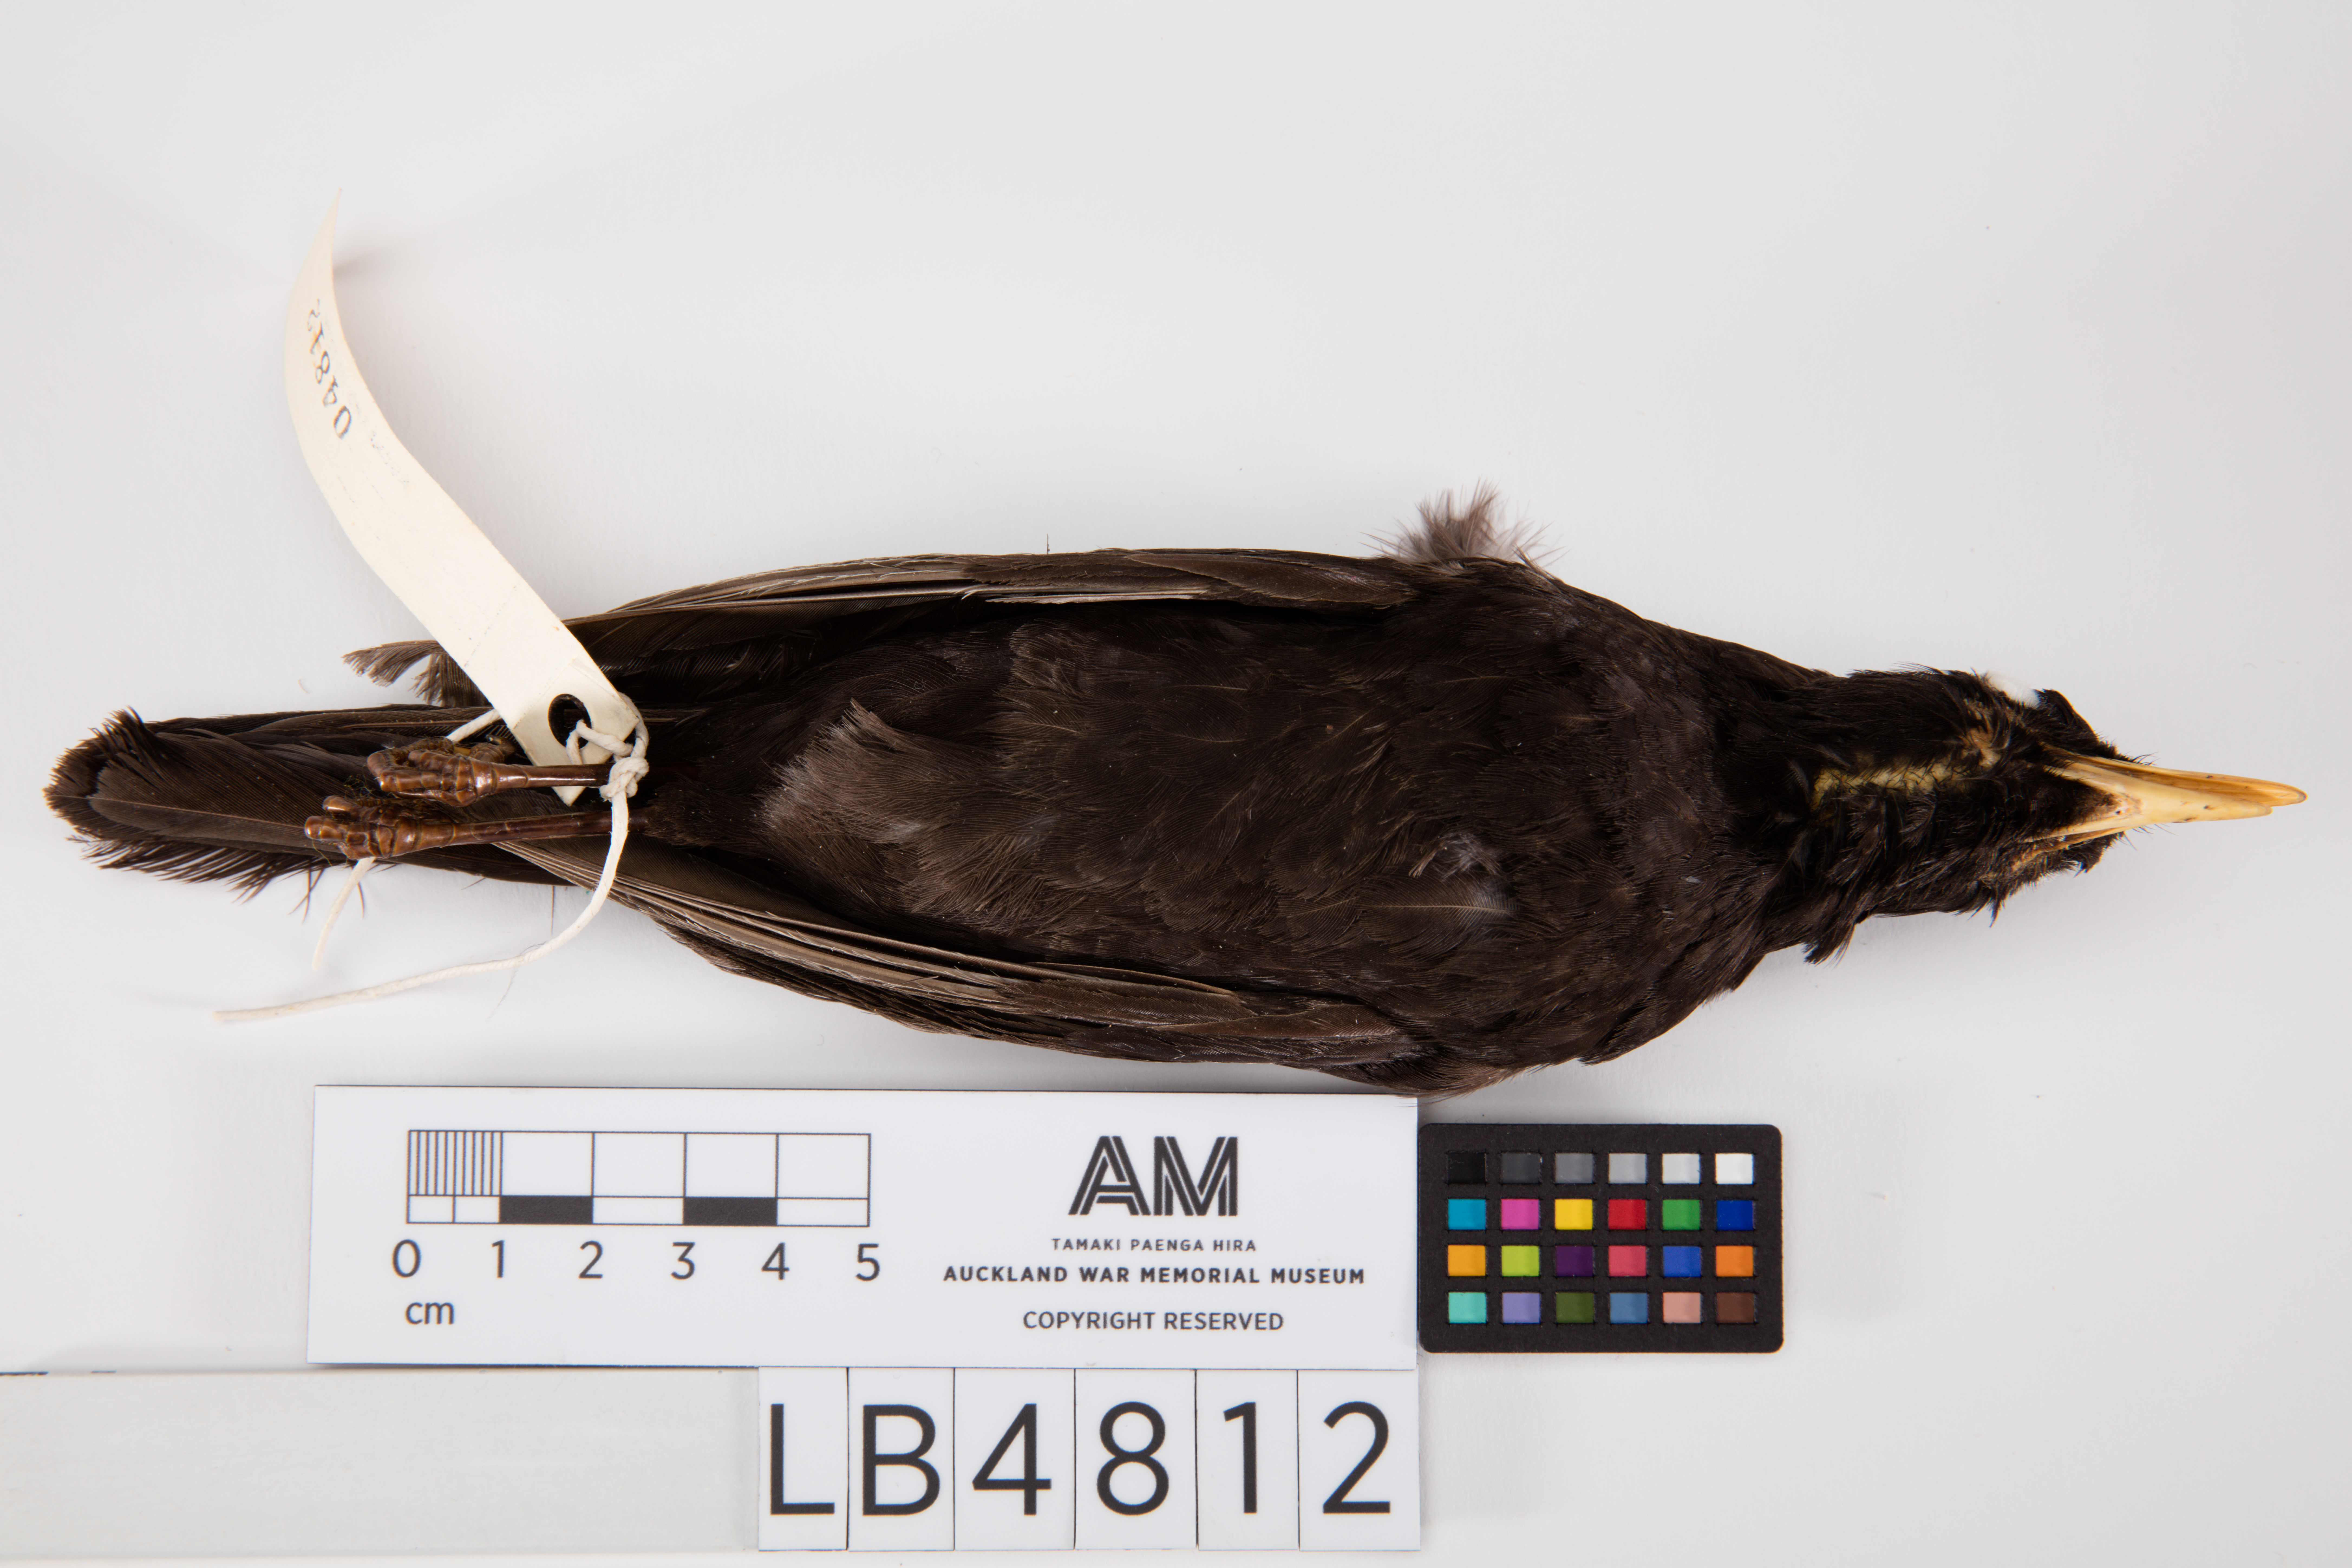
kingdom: Animalia
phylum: Chordata
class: Aves
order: Passeriformes
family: Turdidae
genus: Turdus
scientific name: Turdus merula
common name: Common blackbird
